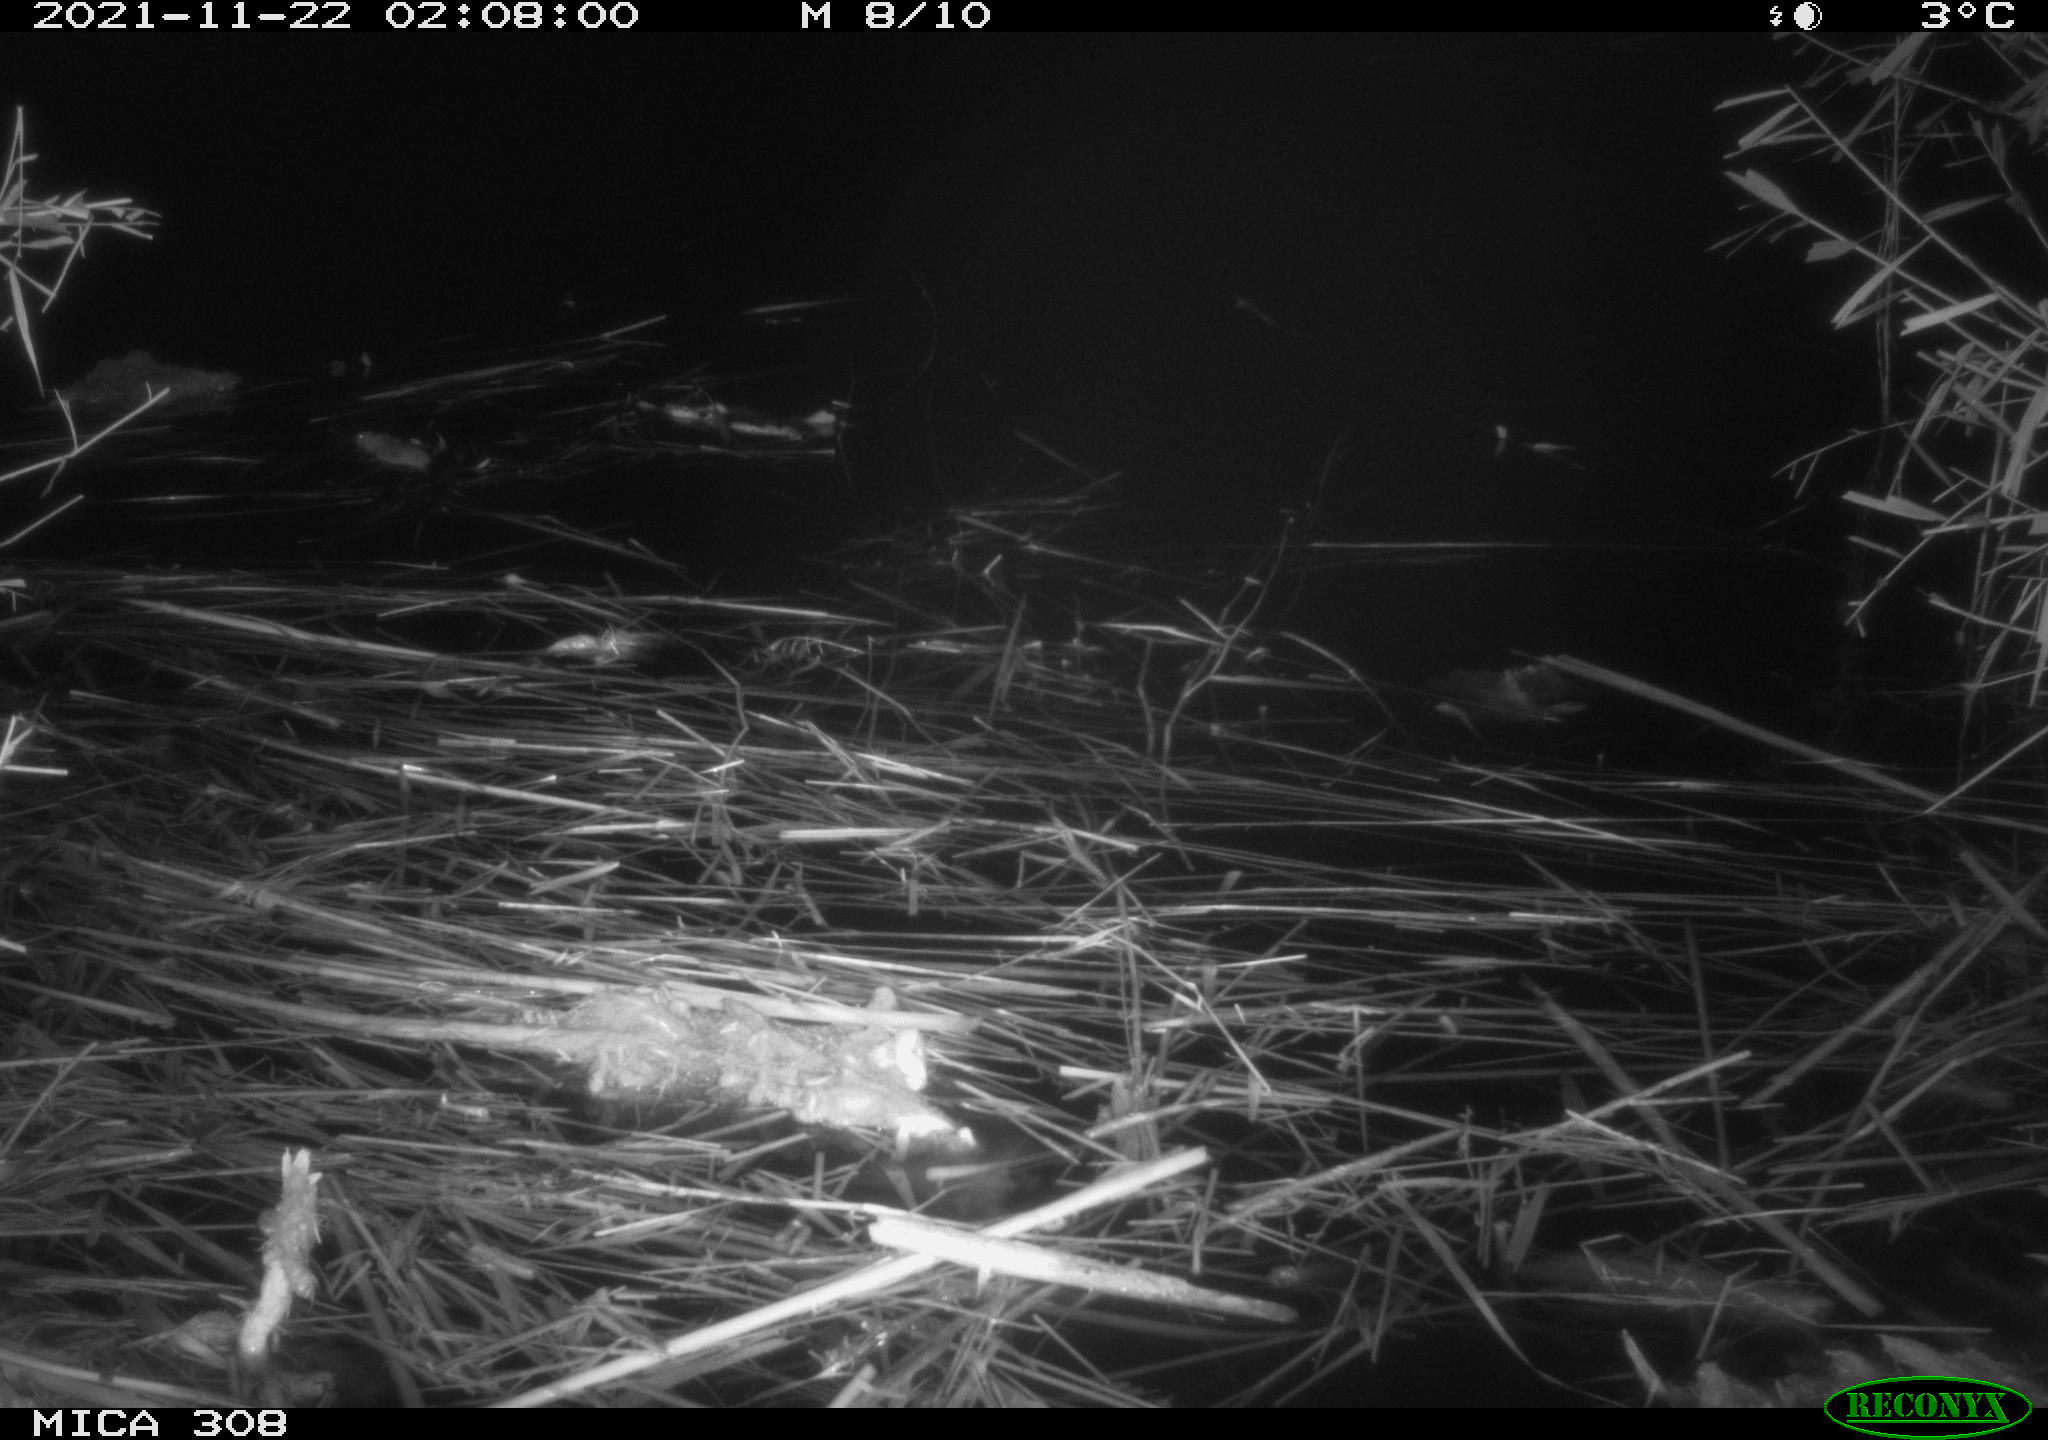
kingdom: Animalia
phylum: Chordata
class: Mammalia
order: Rodentia
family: Muridae
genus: Rattus
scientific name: Rattus norvegicus
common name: Brown rat
